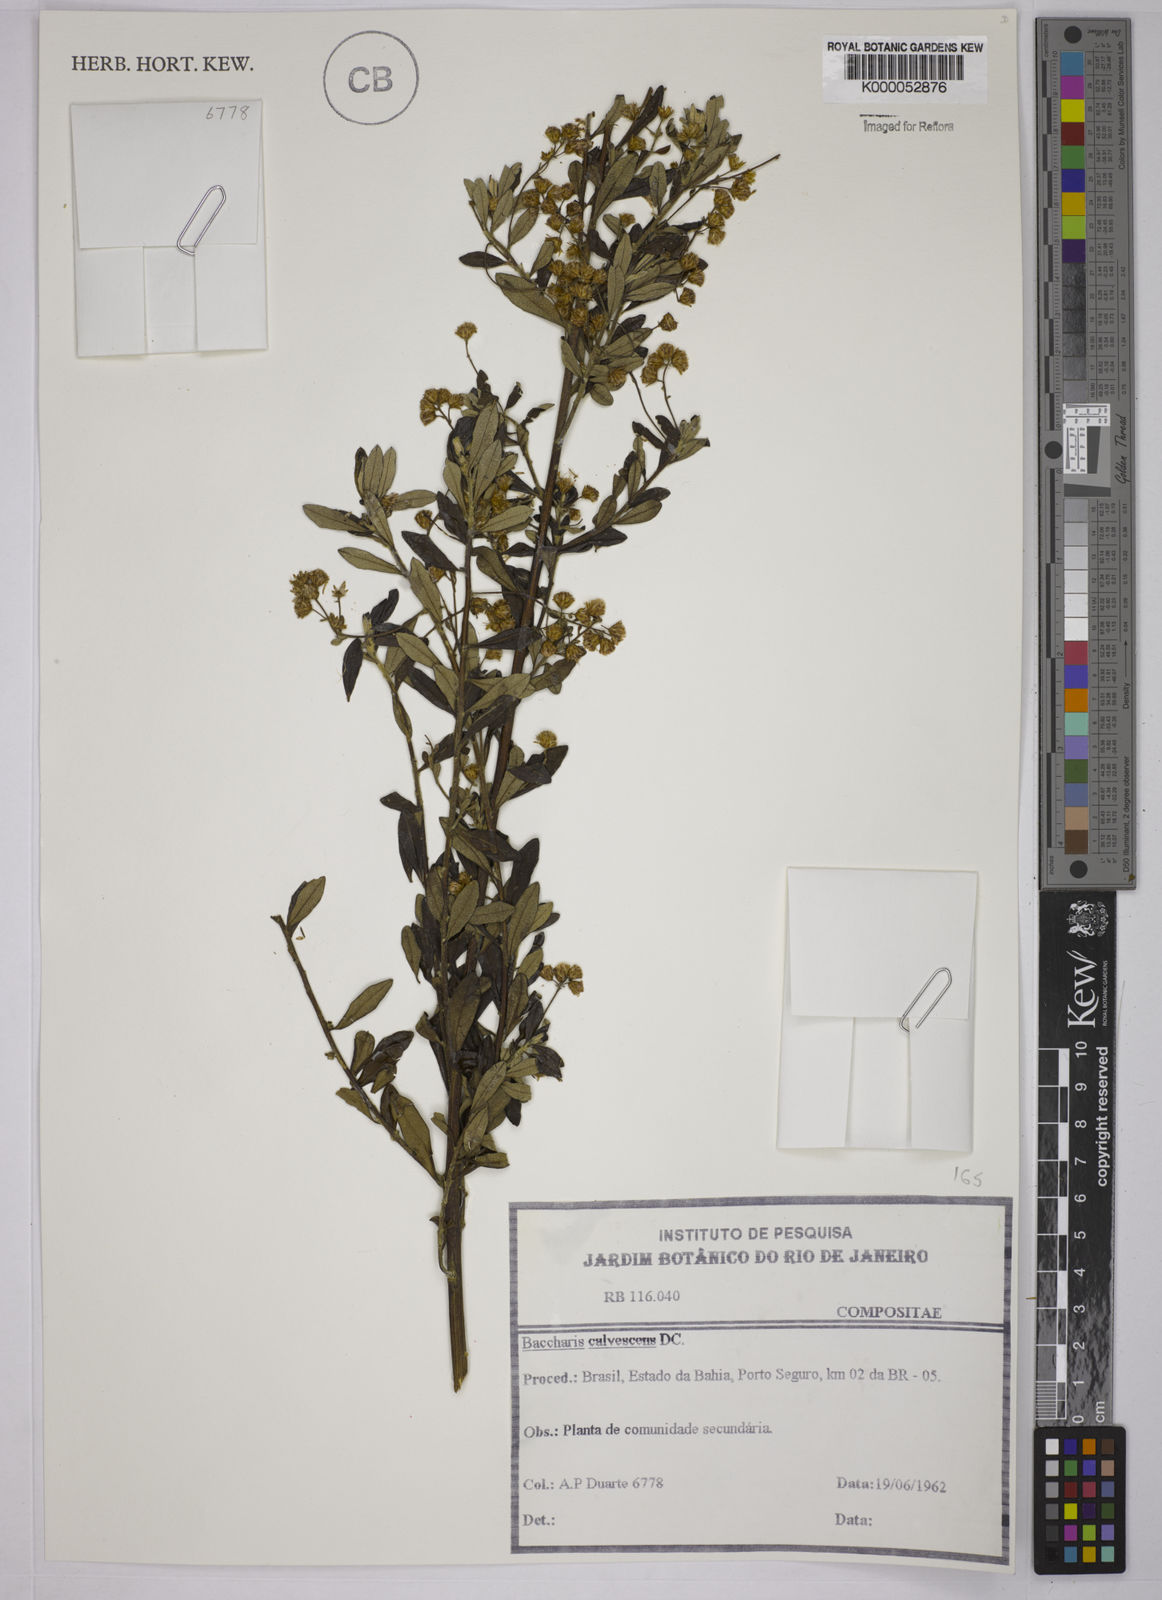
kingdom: Plantae
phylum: Tracheophyta
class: Magnoliopsida
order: Asterales
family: Asteraceae
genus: Baccharis
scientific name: Baccharis calvescens
